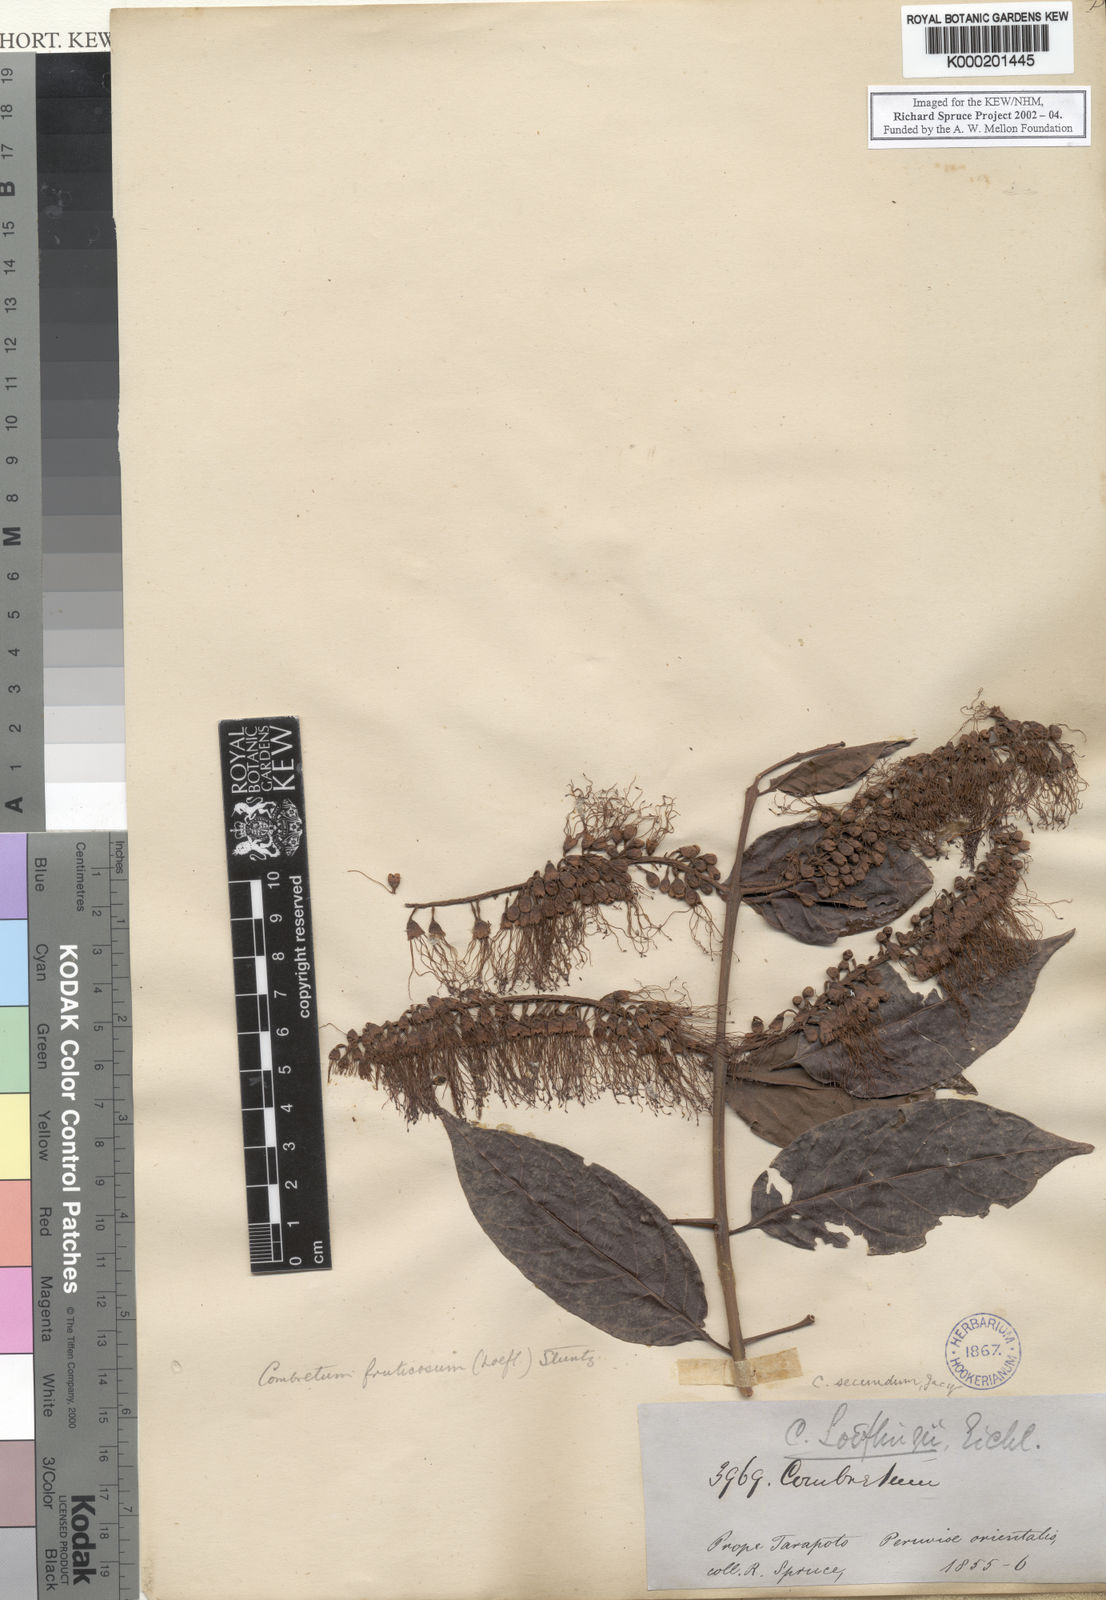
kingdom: Plantae
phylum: Tracheophyta
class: Magnoliopsida
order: Myrtales
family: Combretaceae
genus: Combretum
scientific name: Combretum fruticosum
